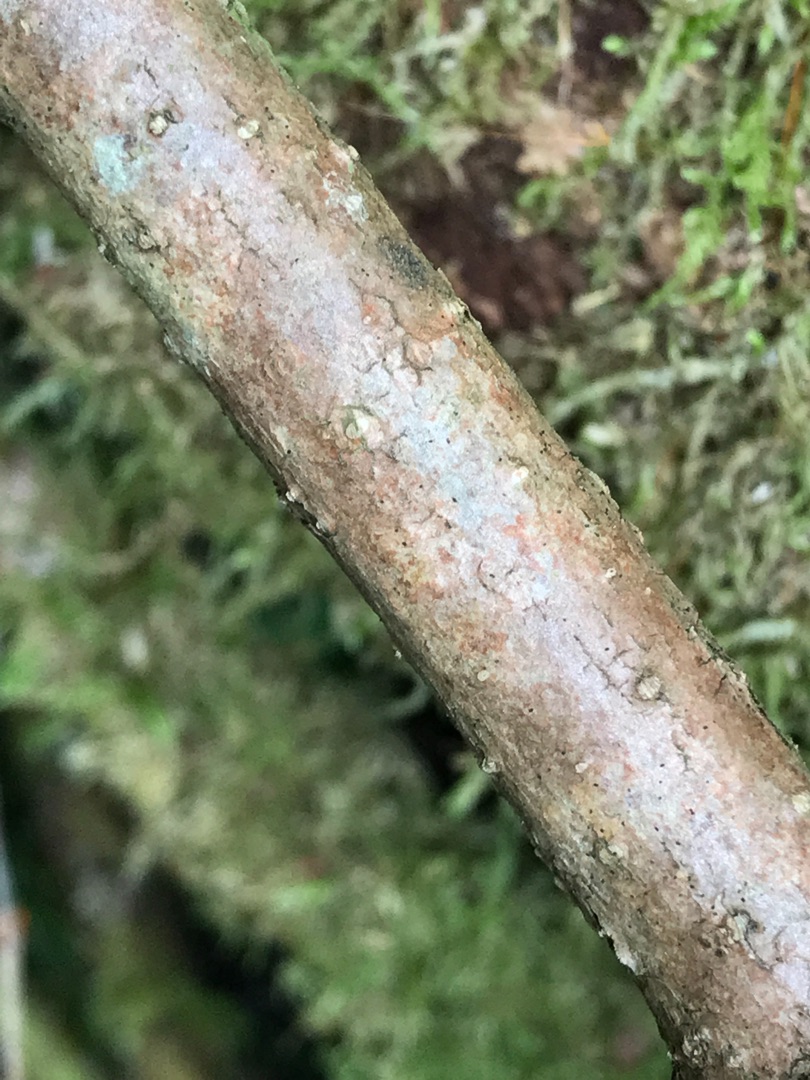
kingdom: Plantae
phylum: Tracheophyta
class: Magnoliopsida
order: Dipsacales
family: Viburnaceae
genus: Viburnum
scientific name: Viburnum opulus
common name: Kvalkved
